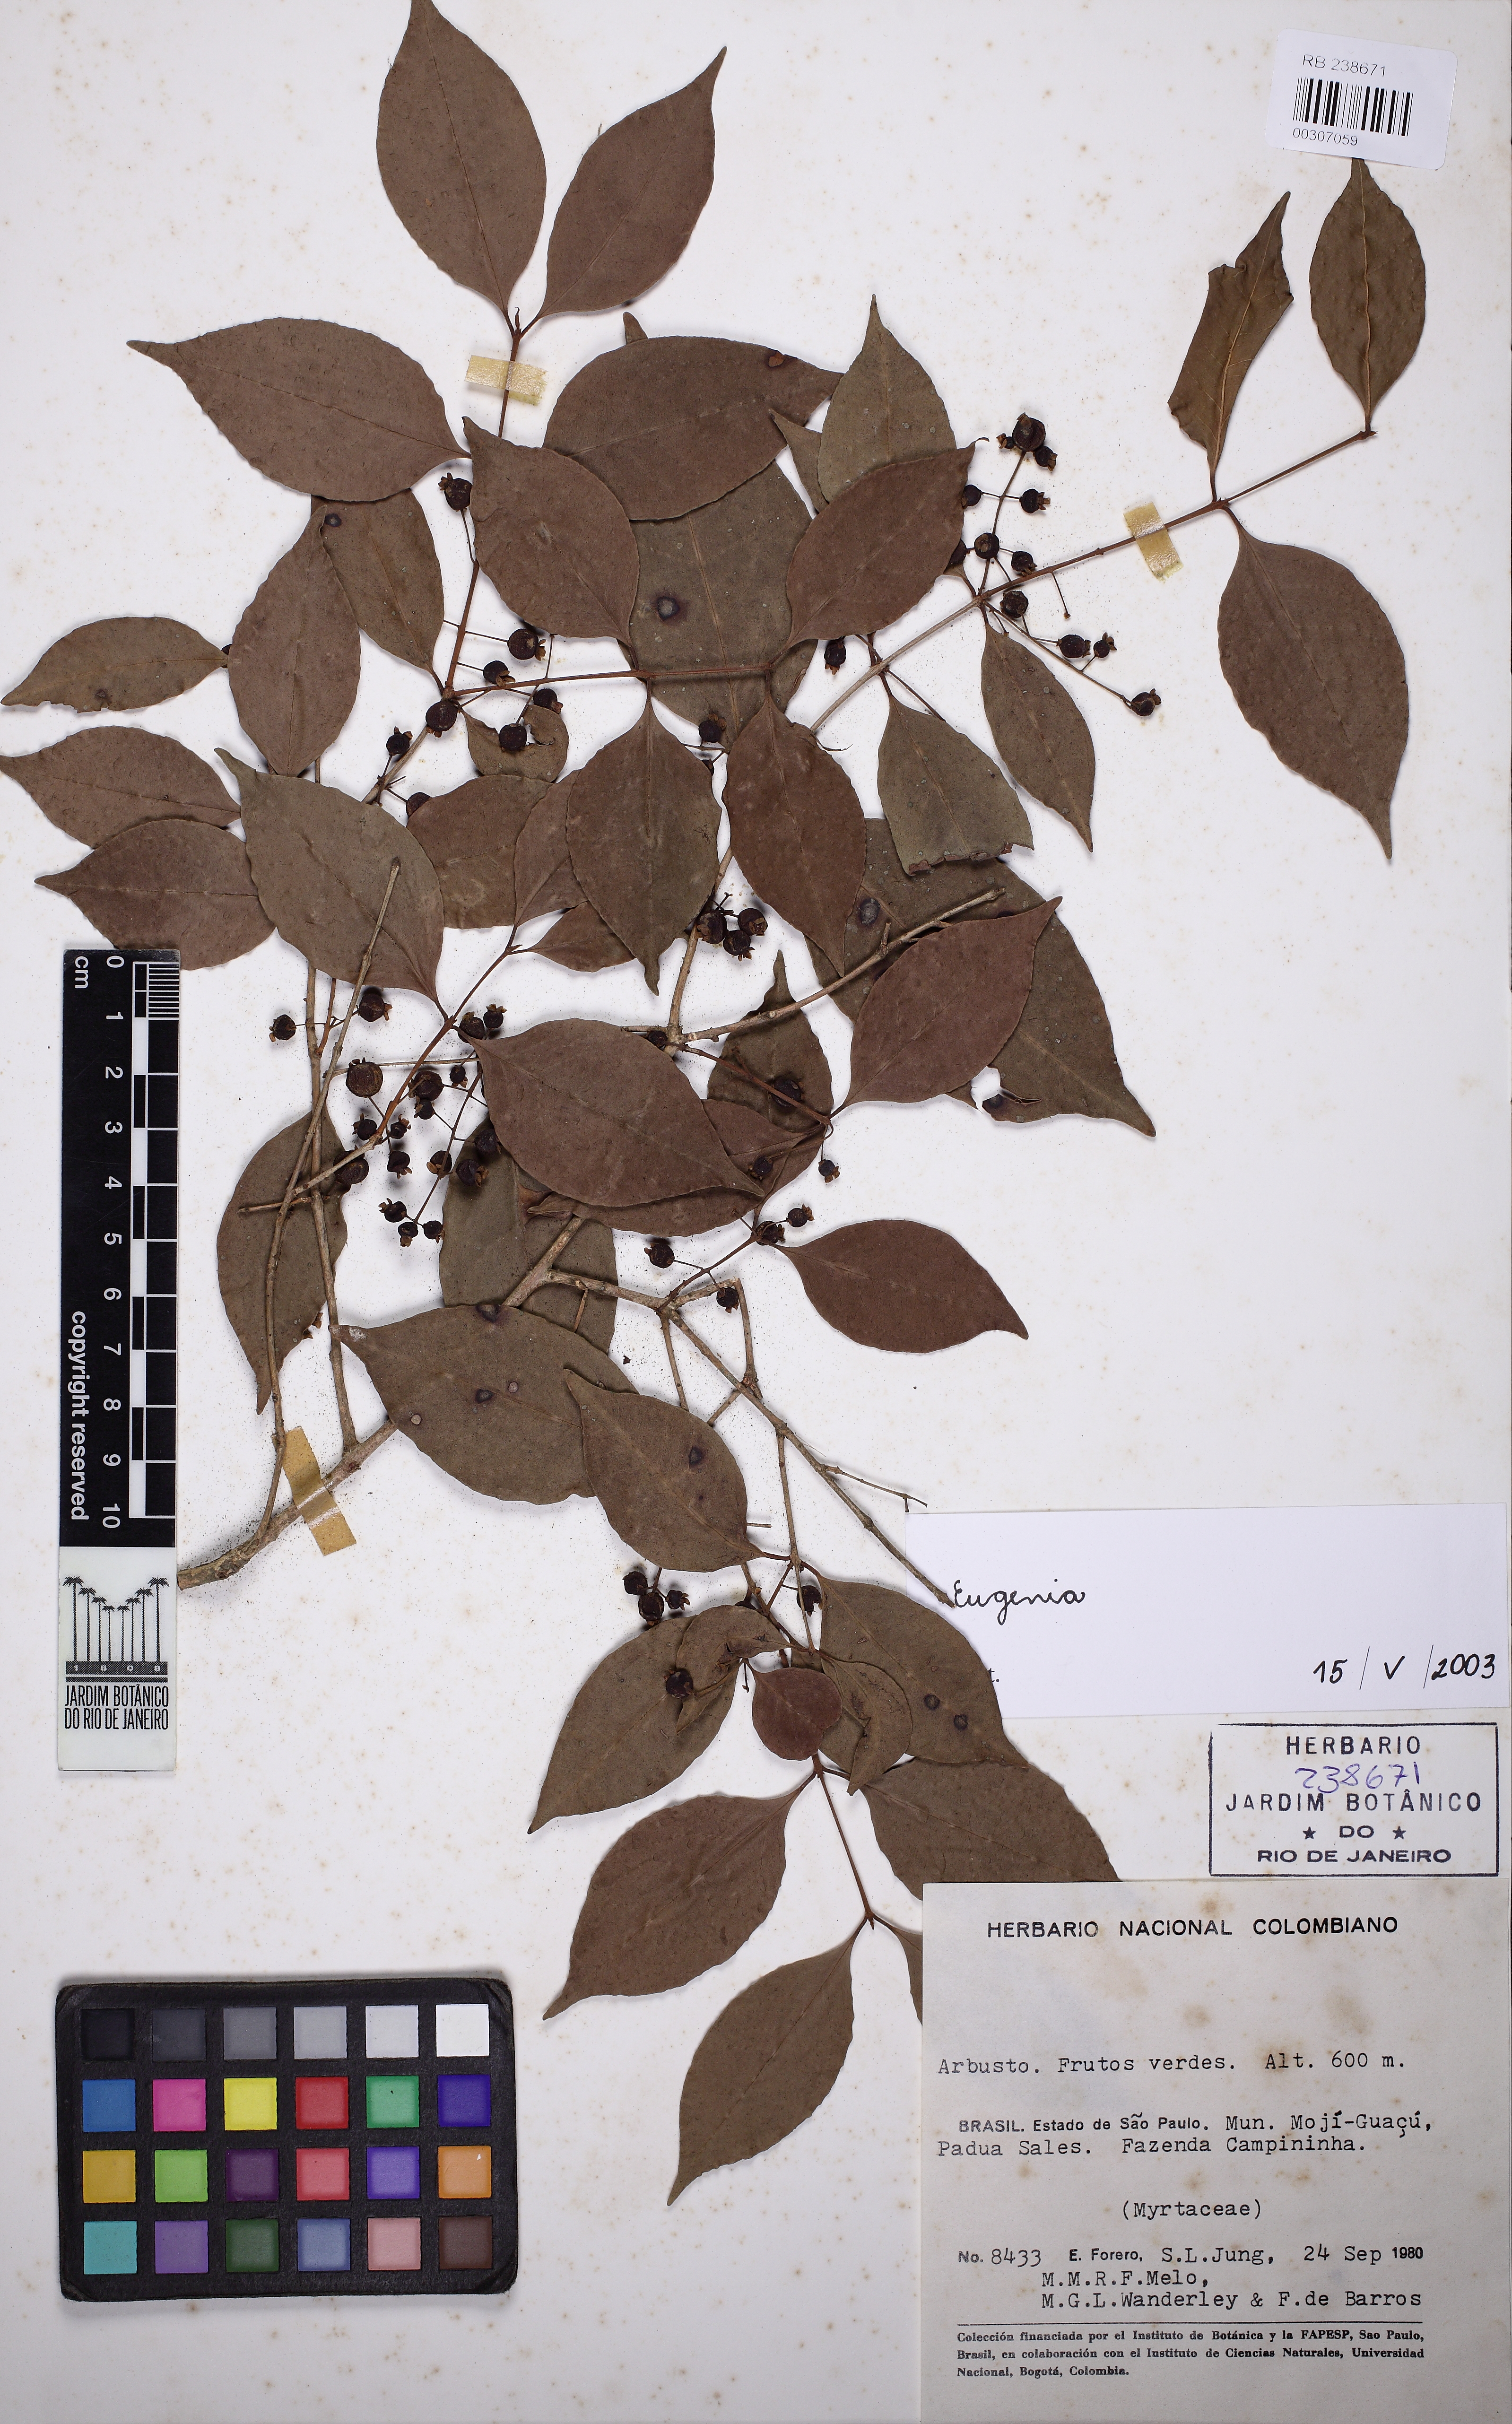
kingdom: Plantae
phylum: Tracheophyta
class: Magnoliopsida
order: Myrtales
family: Myrtaceae
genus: Eugenia
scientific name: Eugenia moraviana
